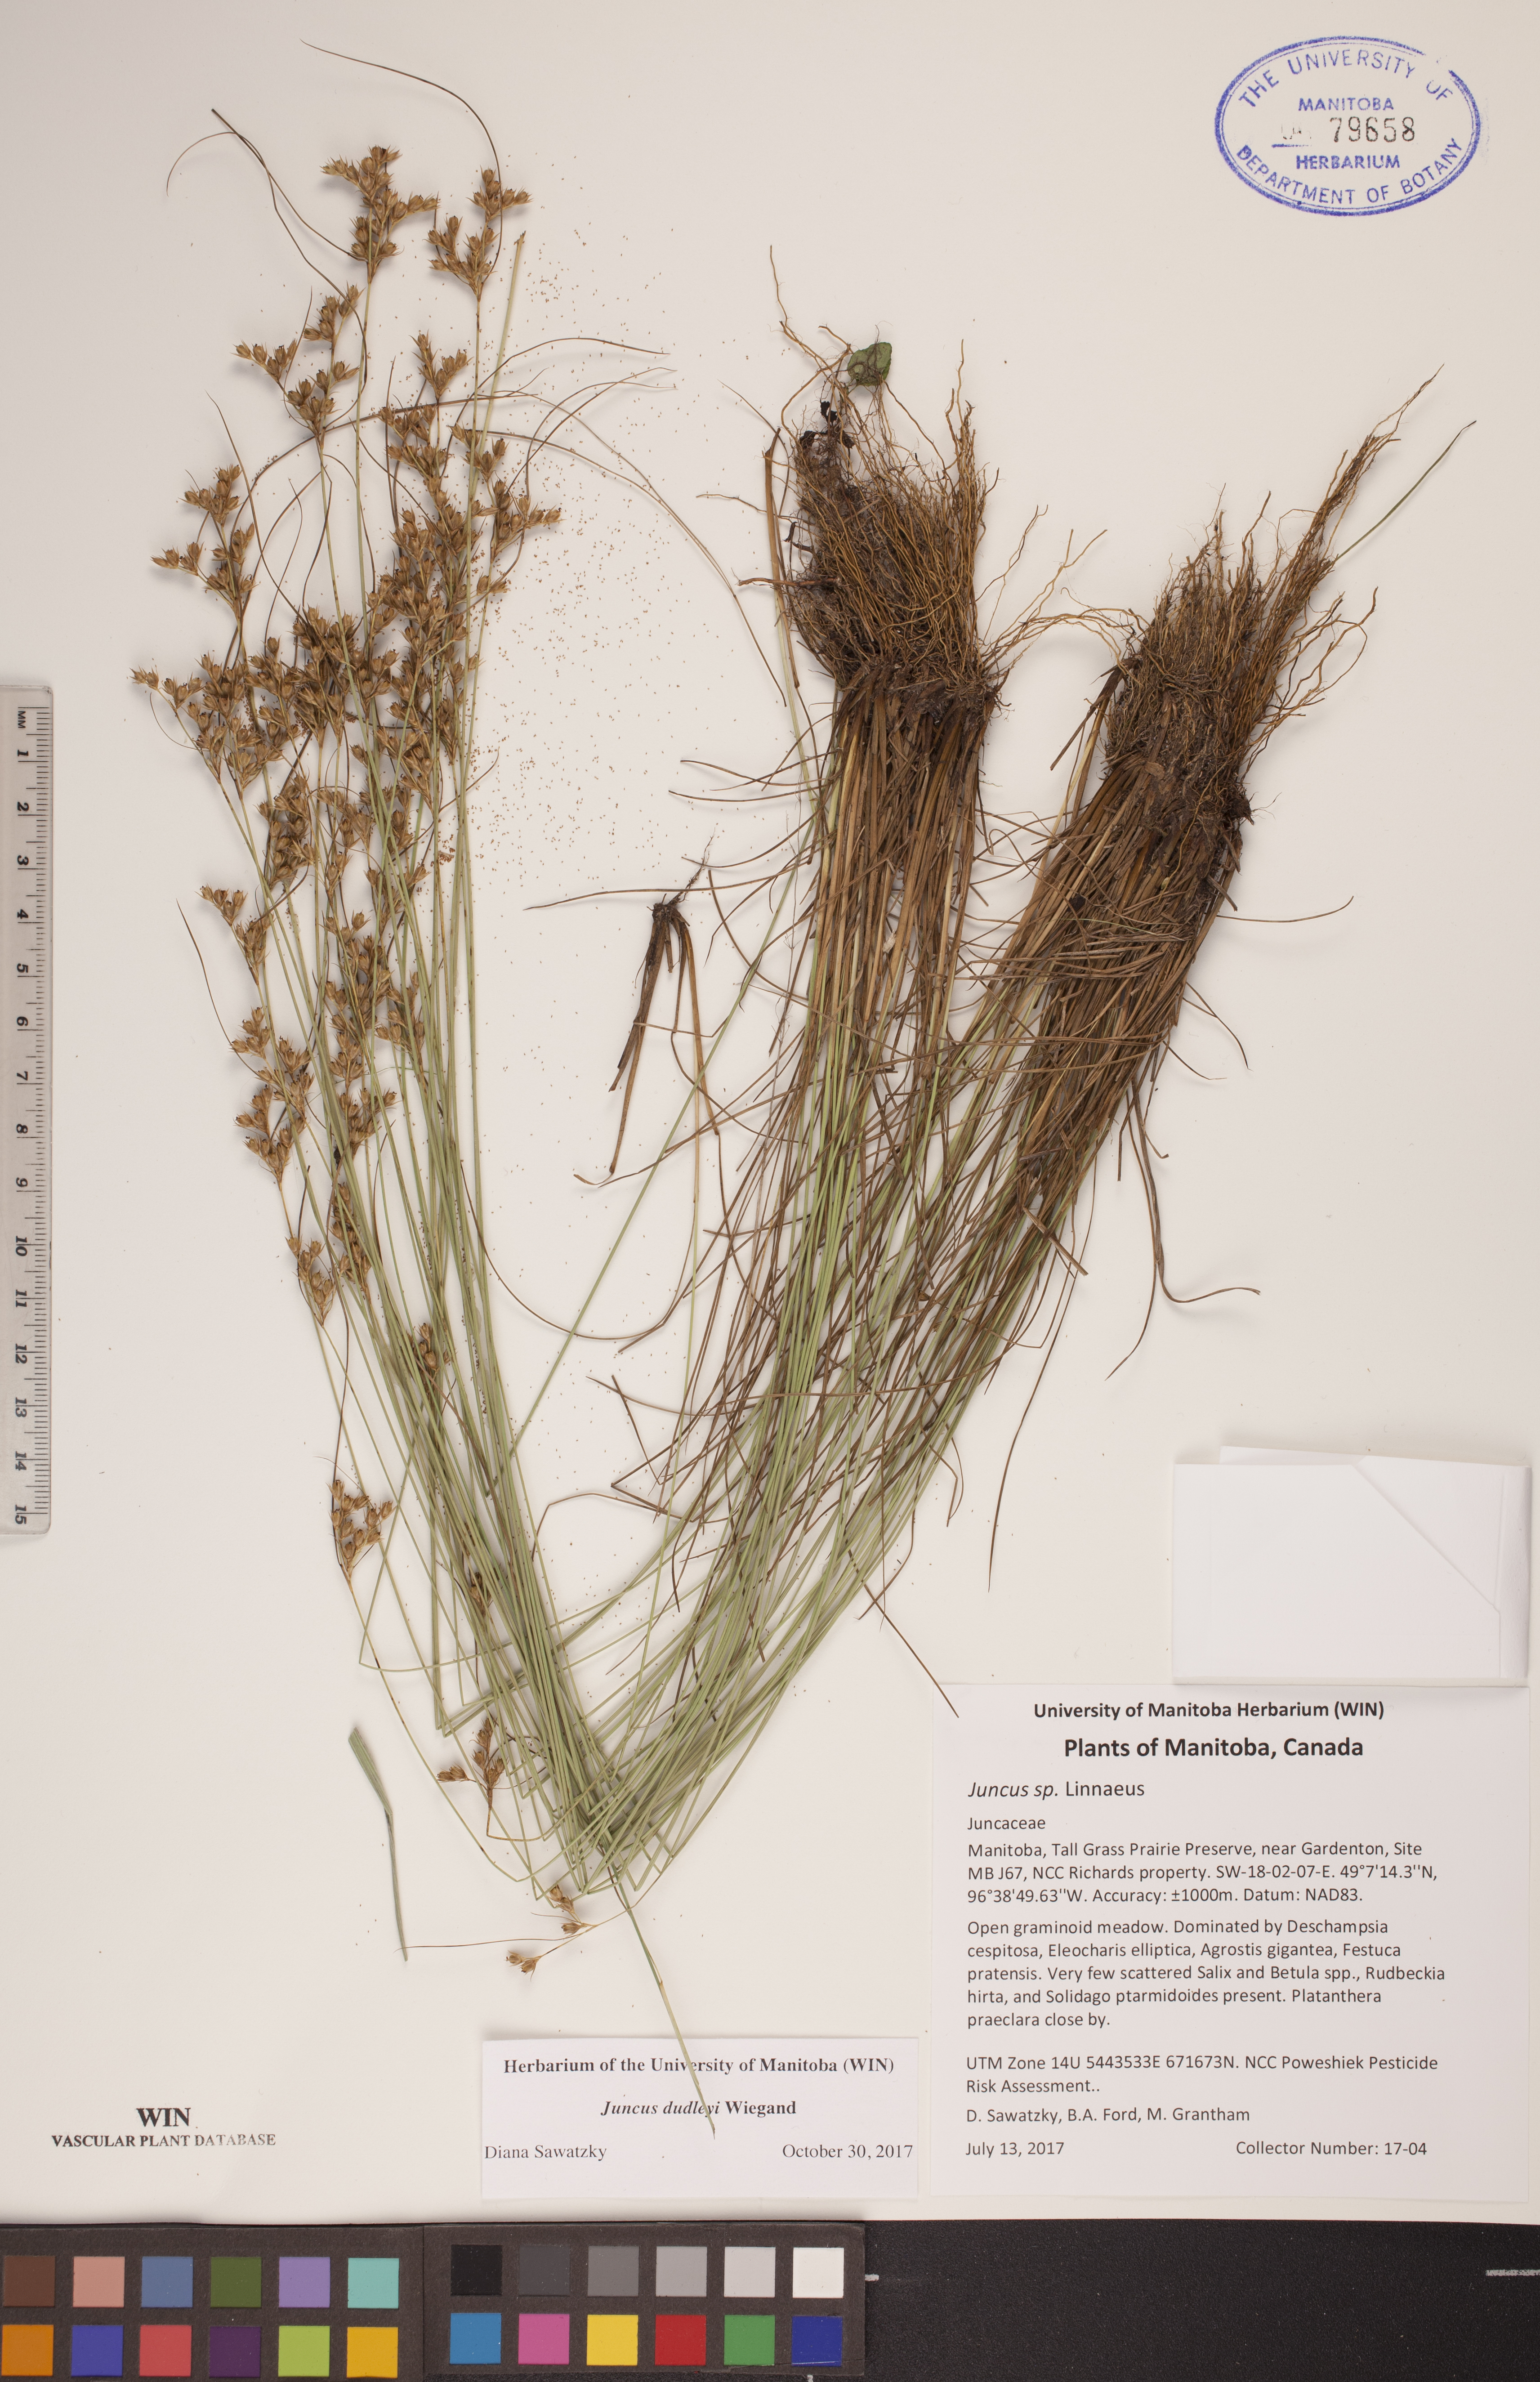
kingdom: Plantae
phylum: Tracheophyta
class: Liliopsida
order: Poales
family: Juncaceae
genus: Juncus
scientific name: Juncus dudleyi
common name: Dudley's rush
